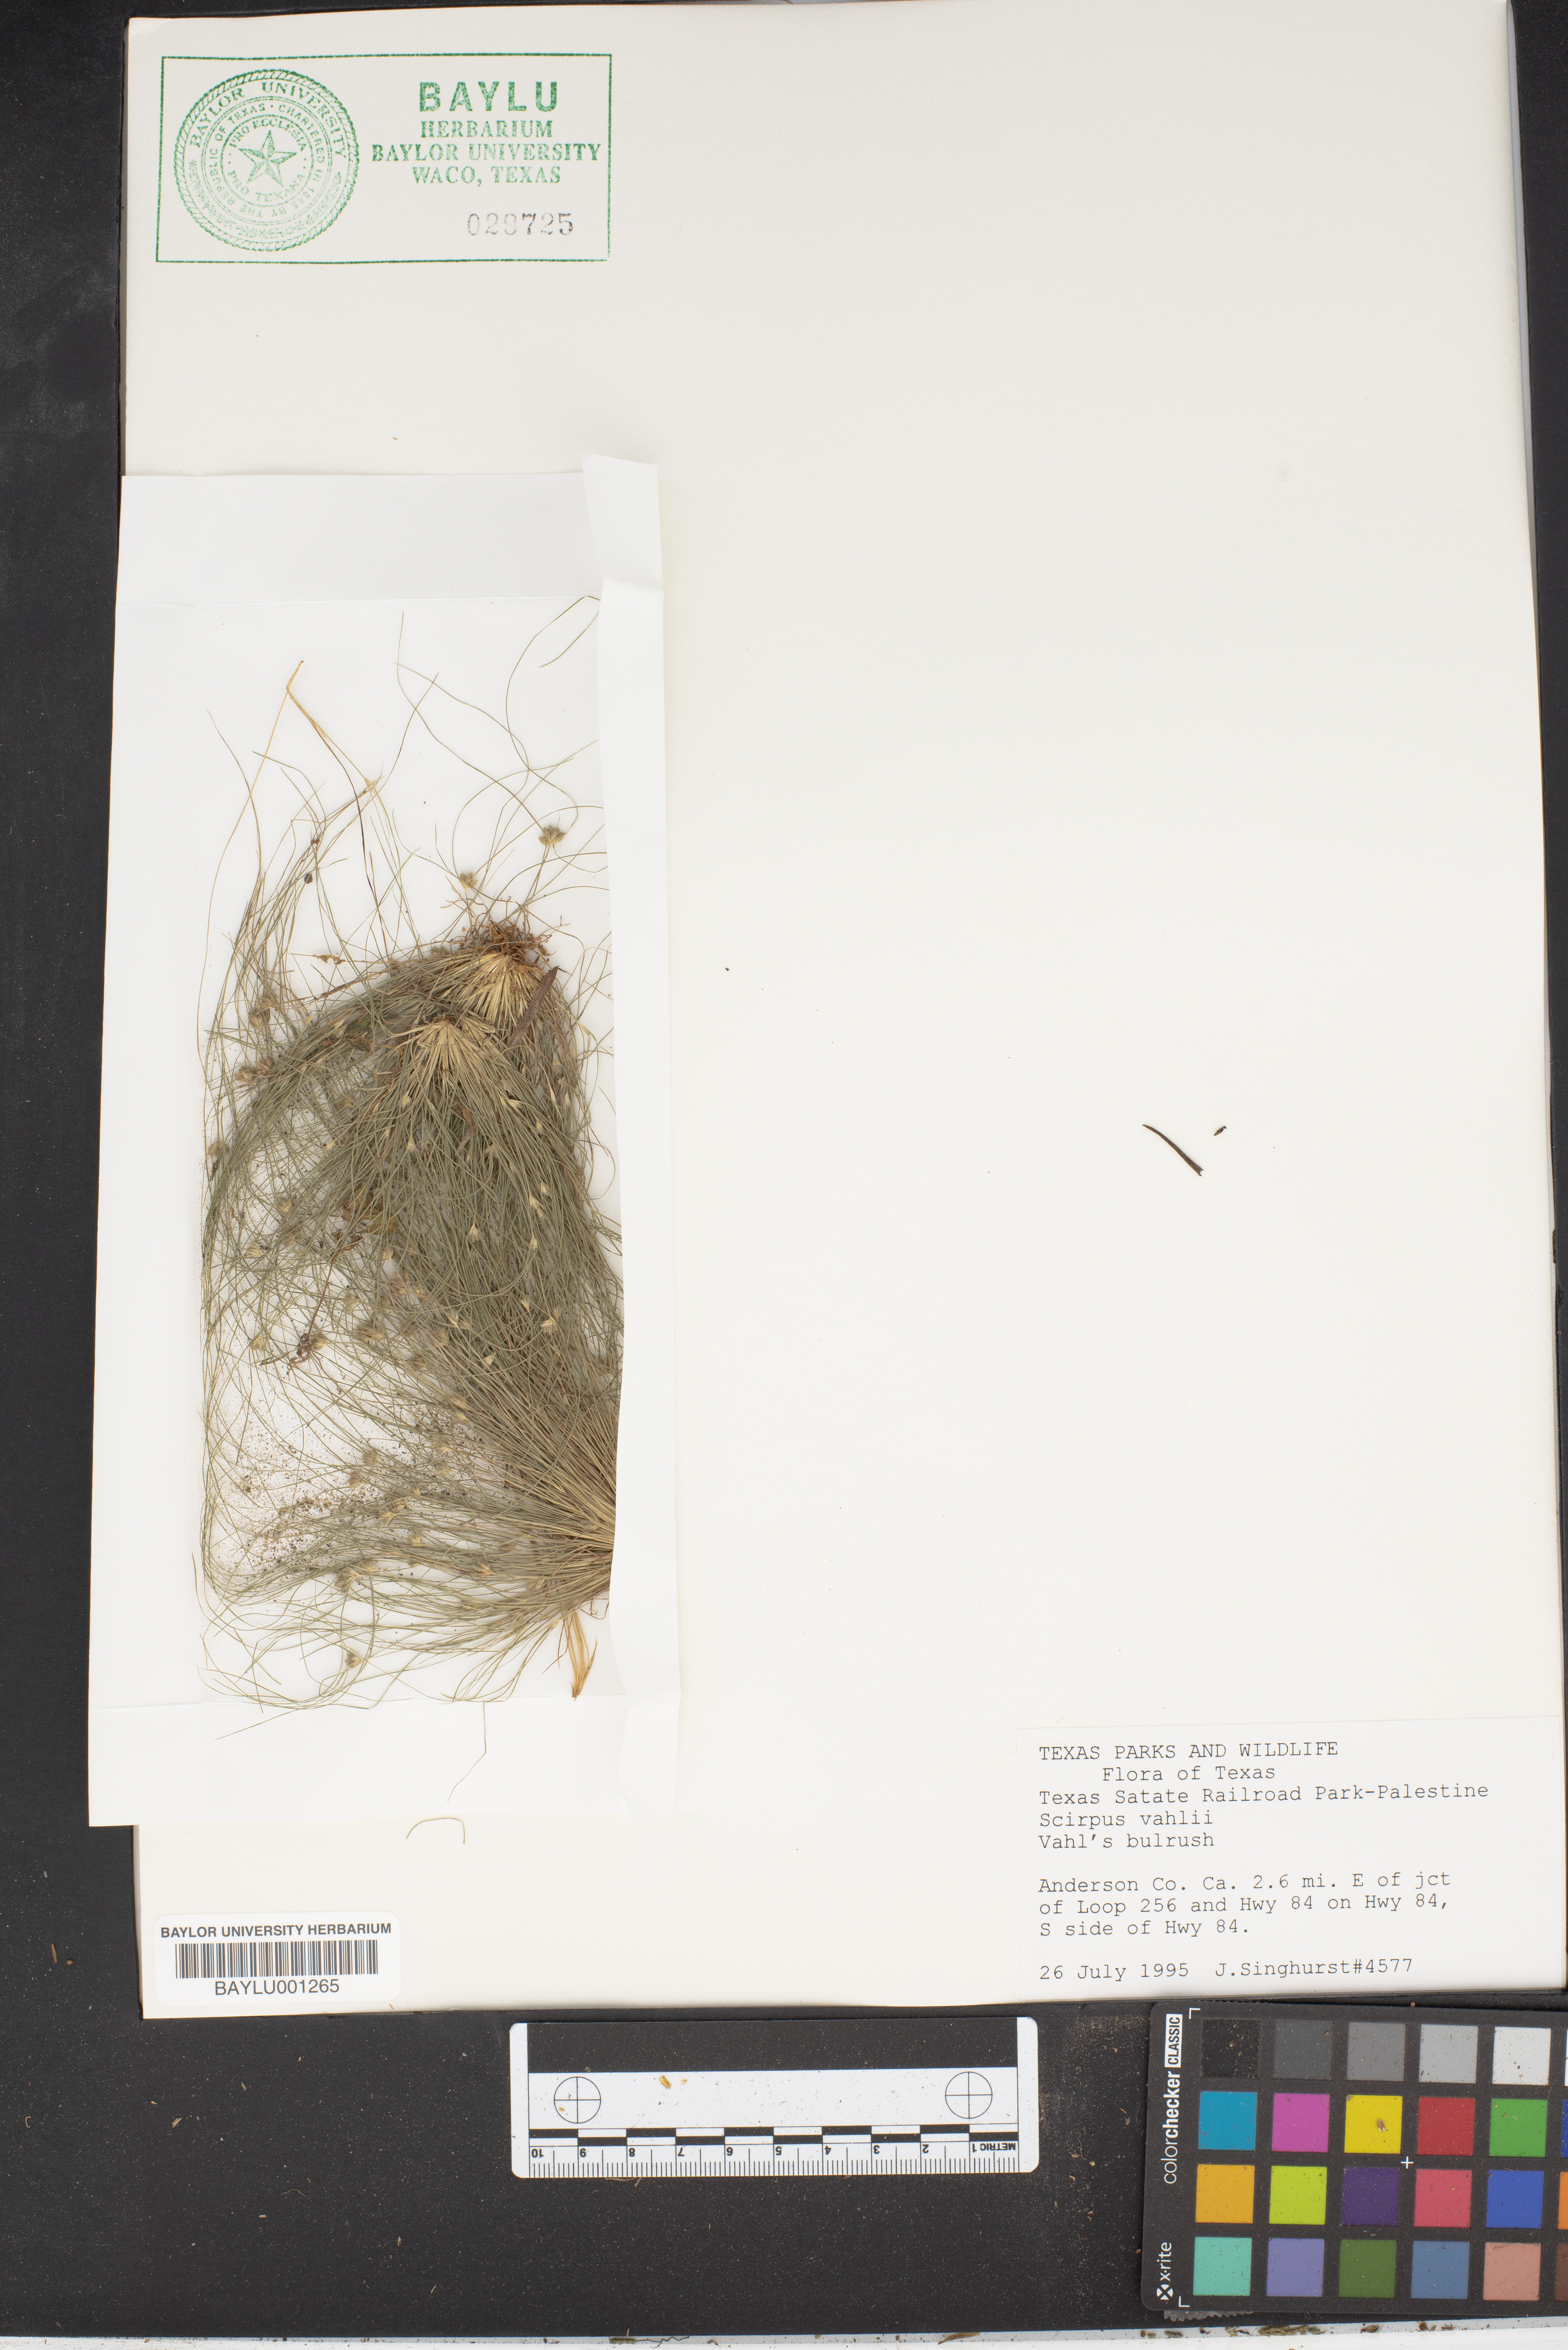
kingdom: Plantae
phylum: Tracheophyta
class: Liliopsida
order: Poales
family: Cyperaceae
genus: Fimbristylis
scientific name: Fimbristylis vahlii
